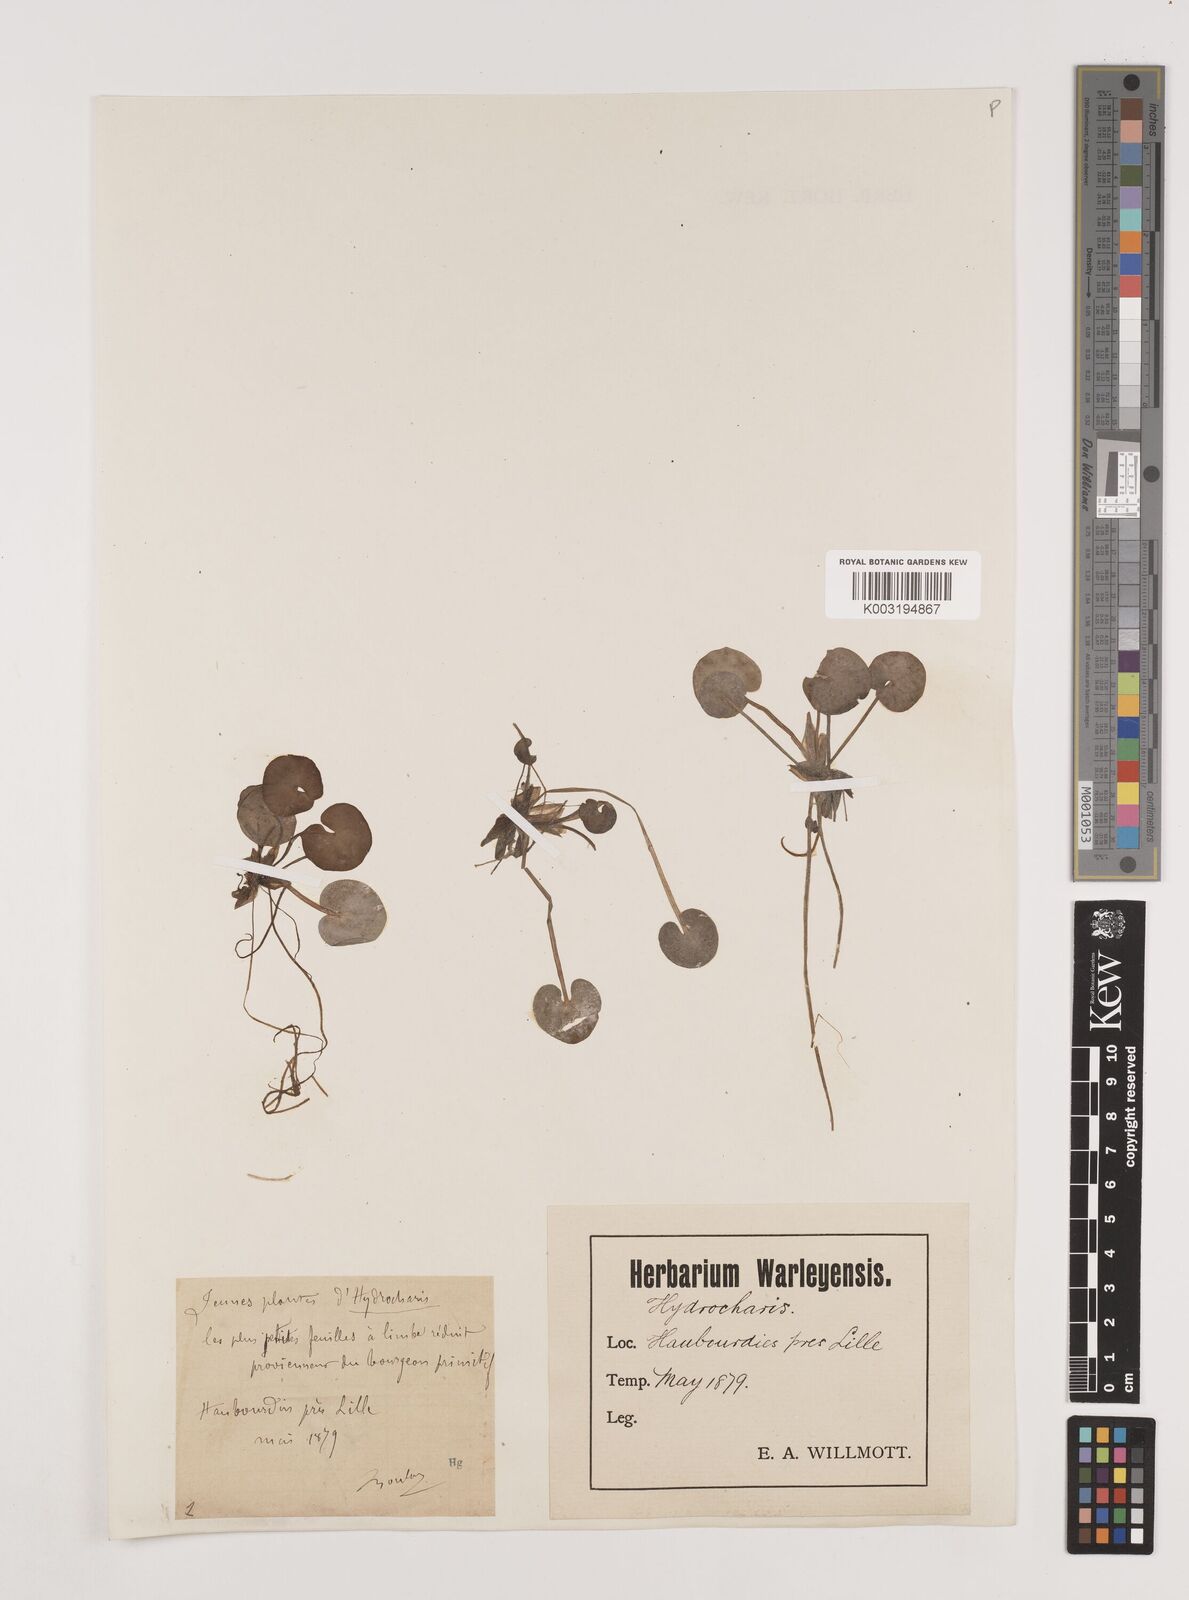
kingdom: Plantae
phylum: Tracheophyta
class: Liliopsida
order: Alismatales
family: Hydrocharitaceae
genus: Hydrocharis
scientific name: Hydrocharis morsus-ranae
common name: Frogbit
